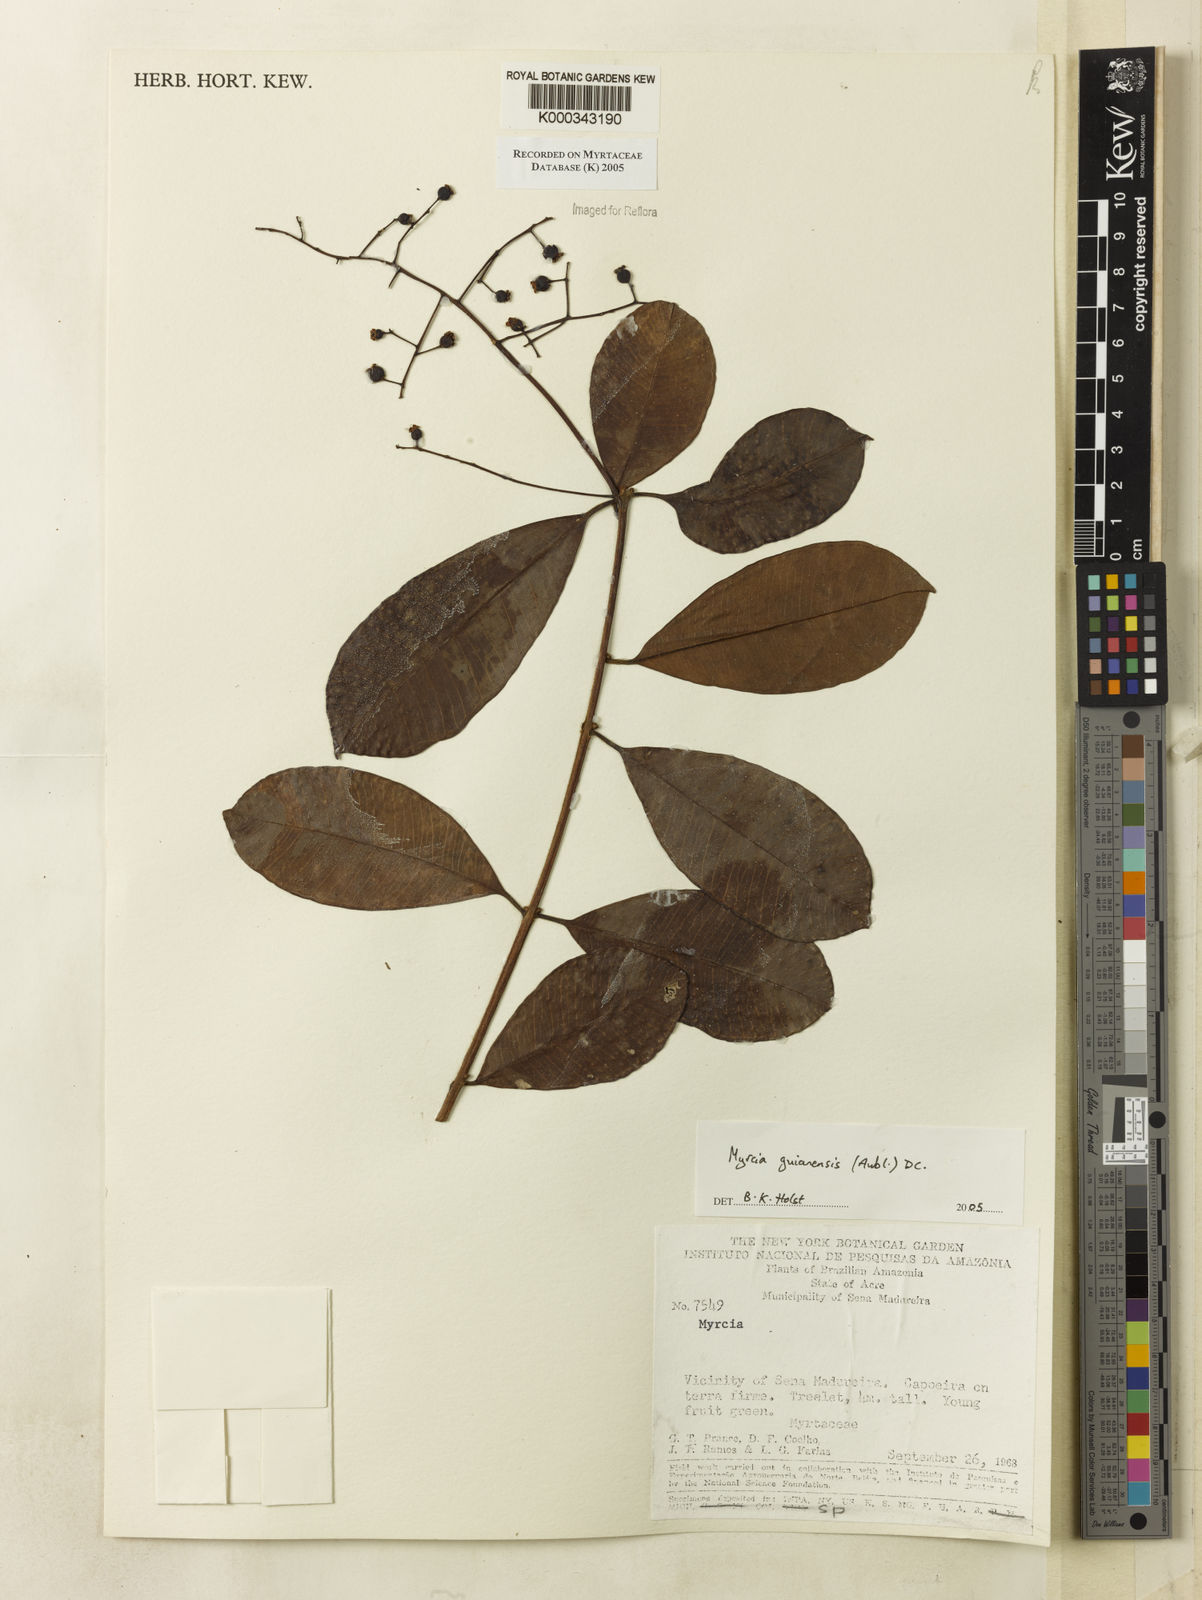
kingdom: Plantae
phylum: Tracheophyta
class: Magnoliopsida
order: Myrtales
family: Myrtaceae
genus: Myrcia
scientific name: Myrcia guianensis
